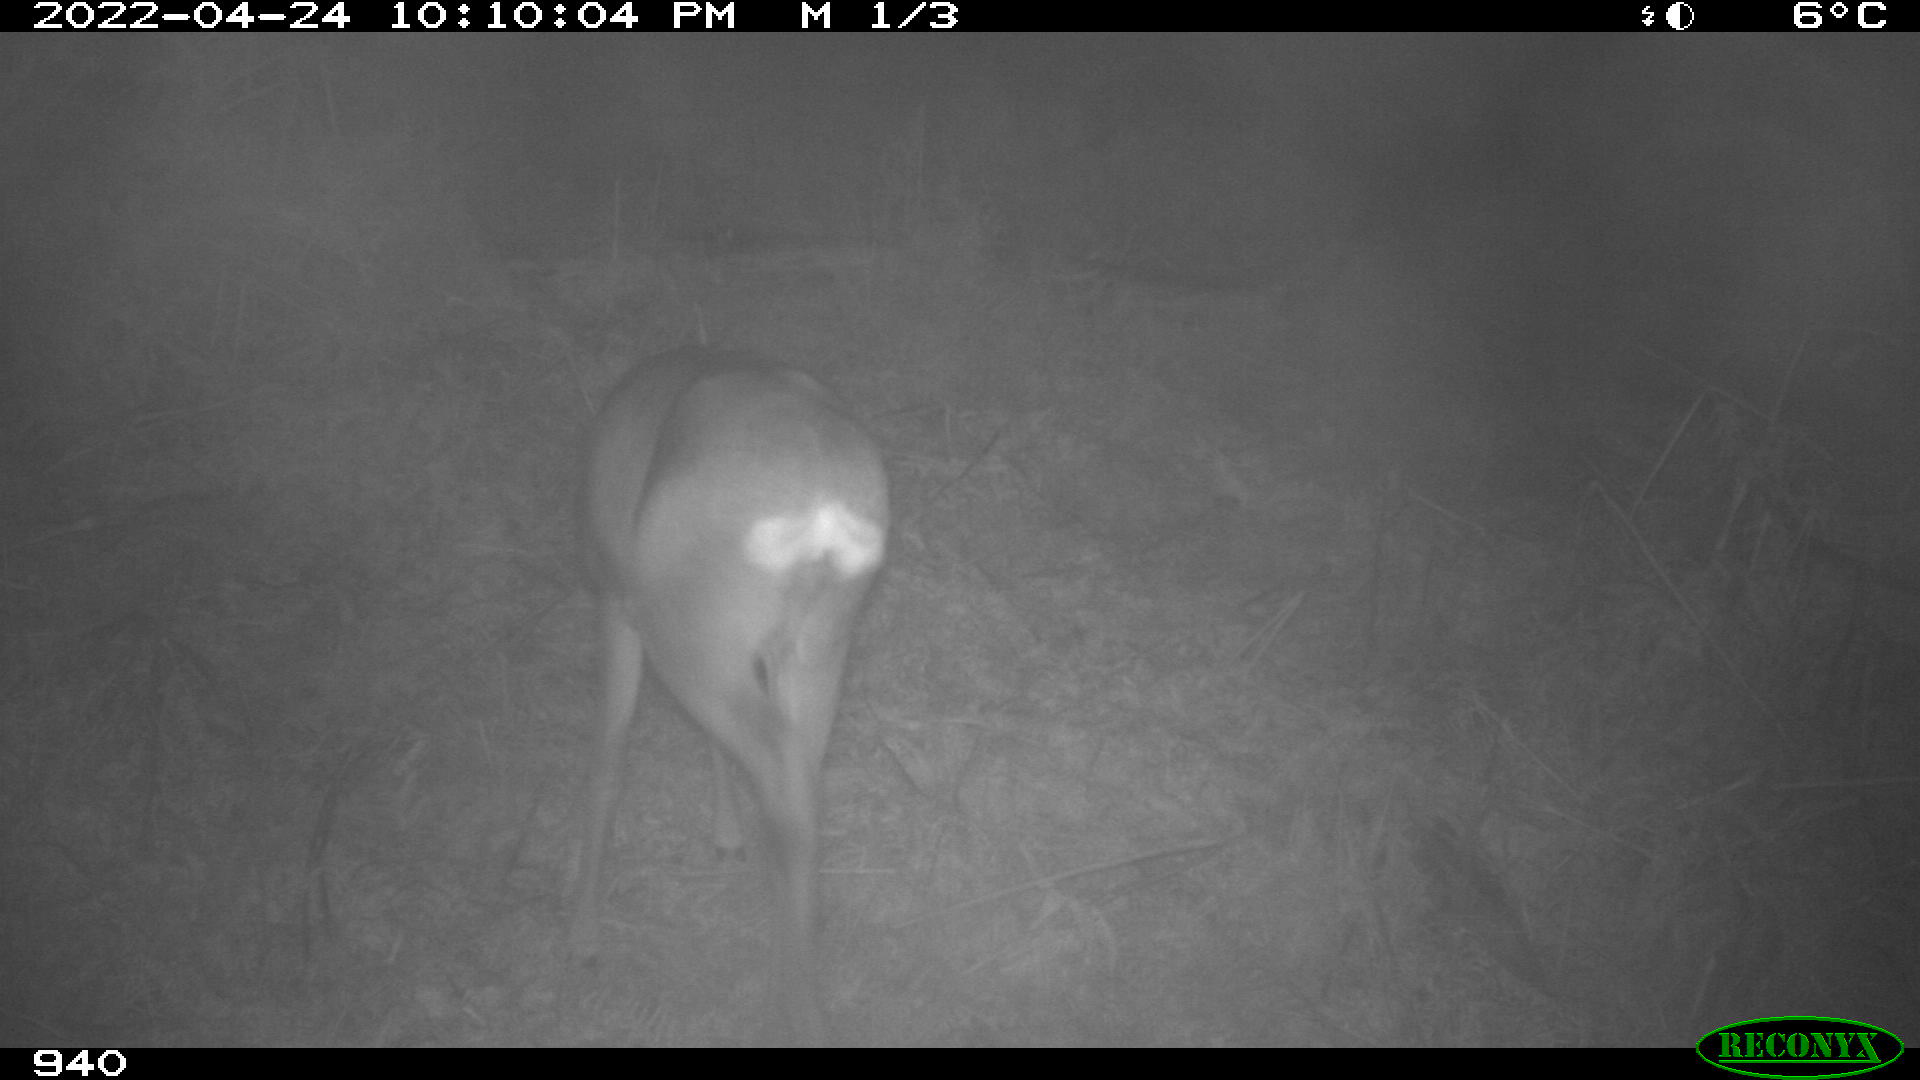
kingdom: Animalia
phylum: Chordata
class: Mammalia
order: Artiodactyla
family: Cervidae
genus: Capreolus
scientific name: Capreolus capreolus
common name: Western roe deer
